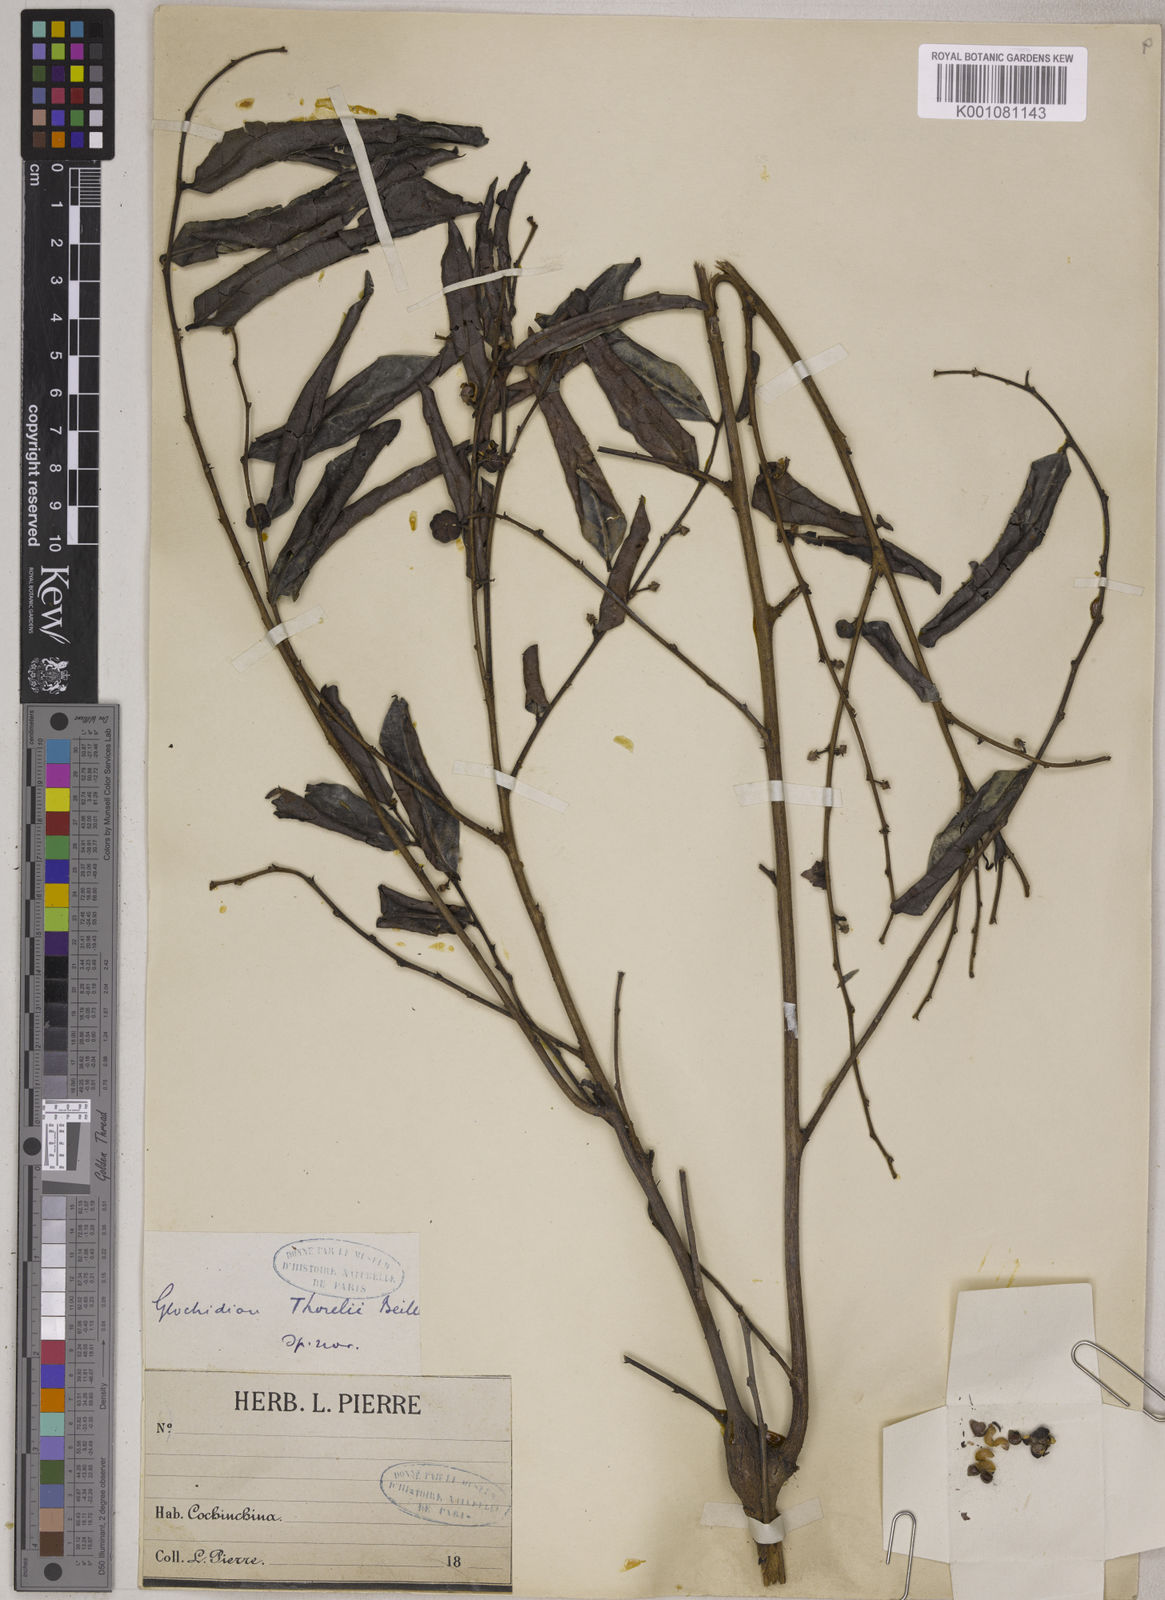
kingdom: Plantae
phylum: Tracheophyta
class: Magnoliopsida
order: Malpighiales
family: Phyllanthaceae
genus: Glochidion
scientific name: Glochidion rubrum
